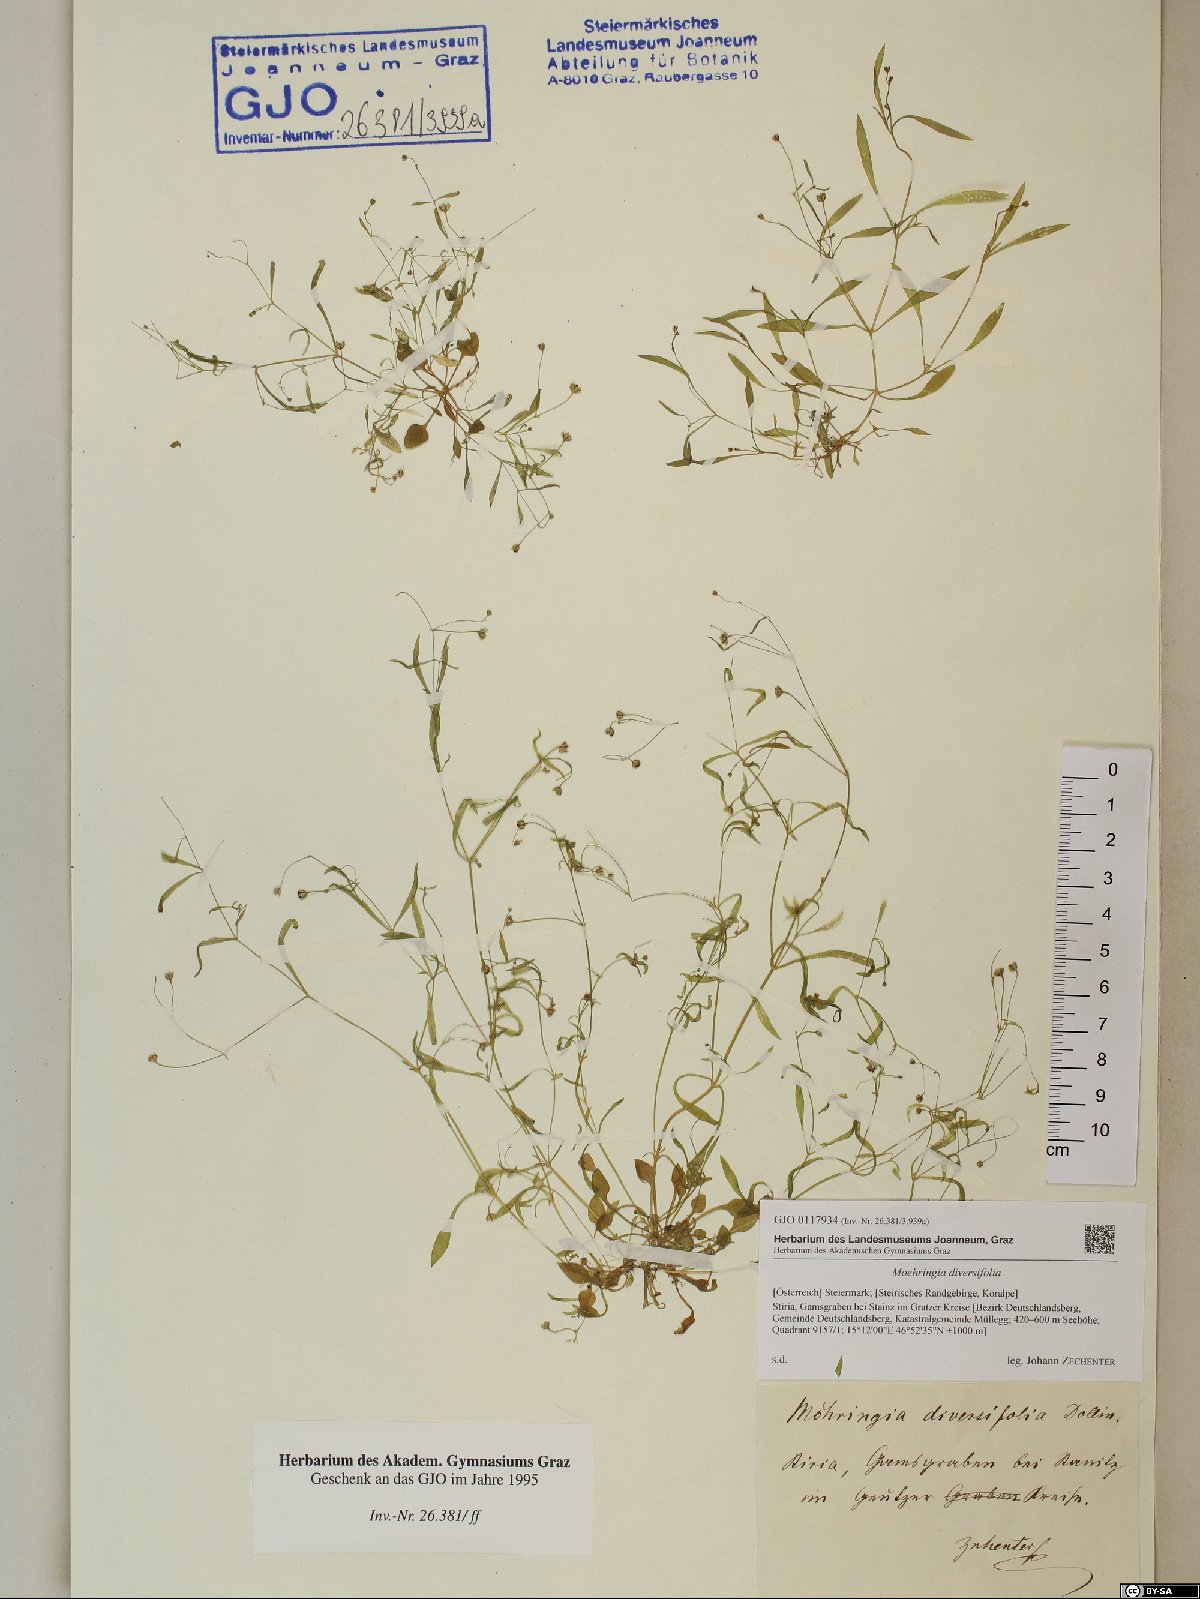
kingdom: Plantae
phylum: Tracheophyta
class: Magnoliopsida
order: Caryophyllales
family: Caryophyllaceae
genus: Moehringia
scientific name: Moehringia diversifolia
